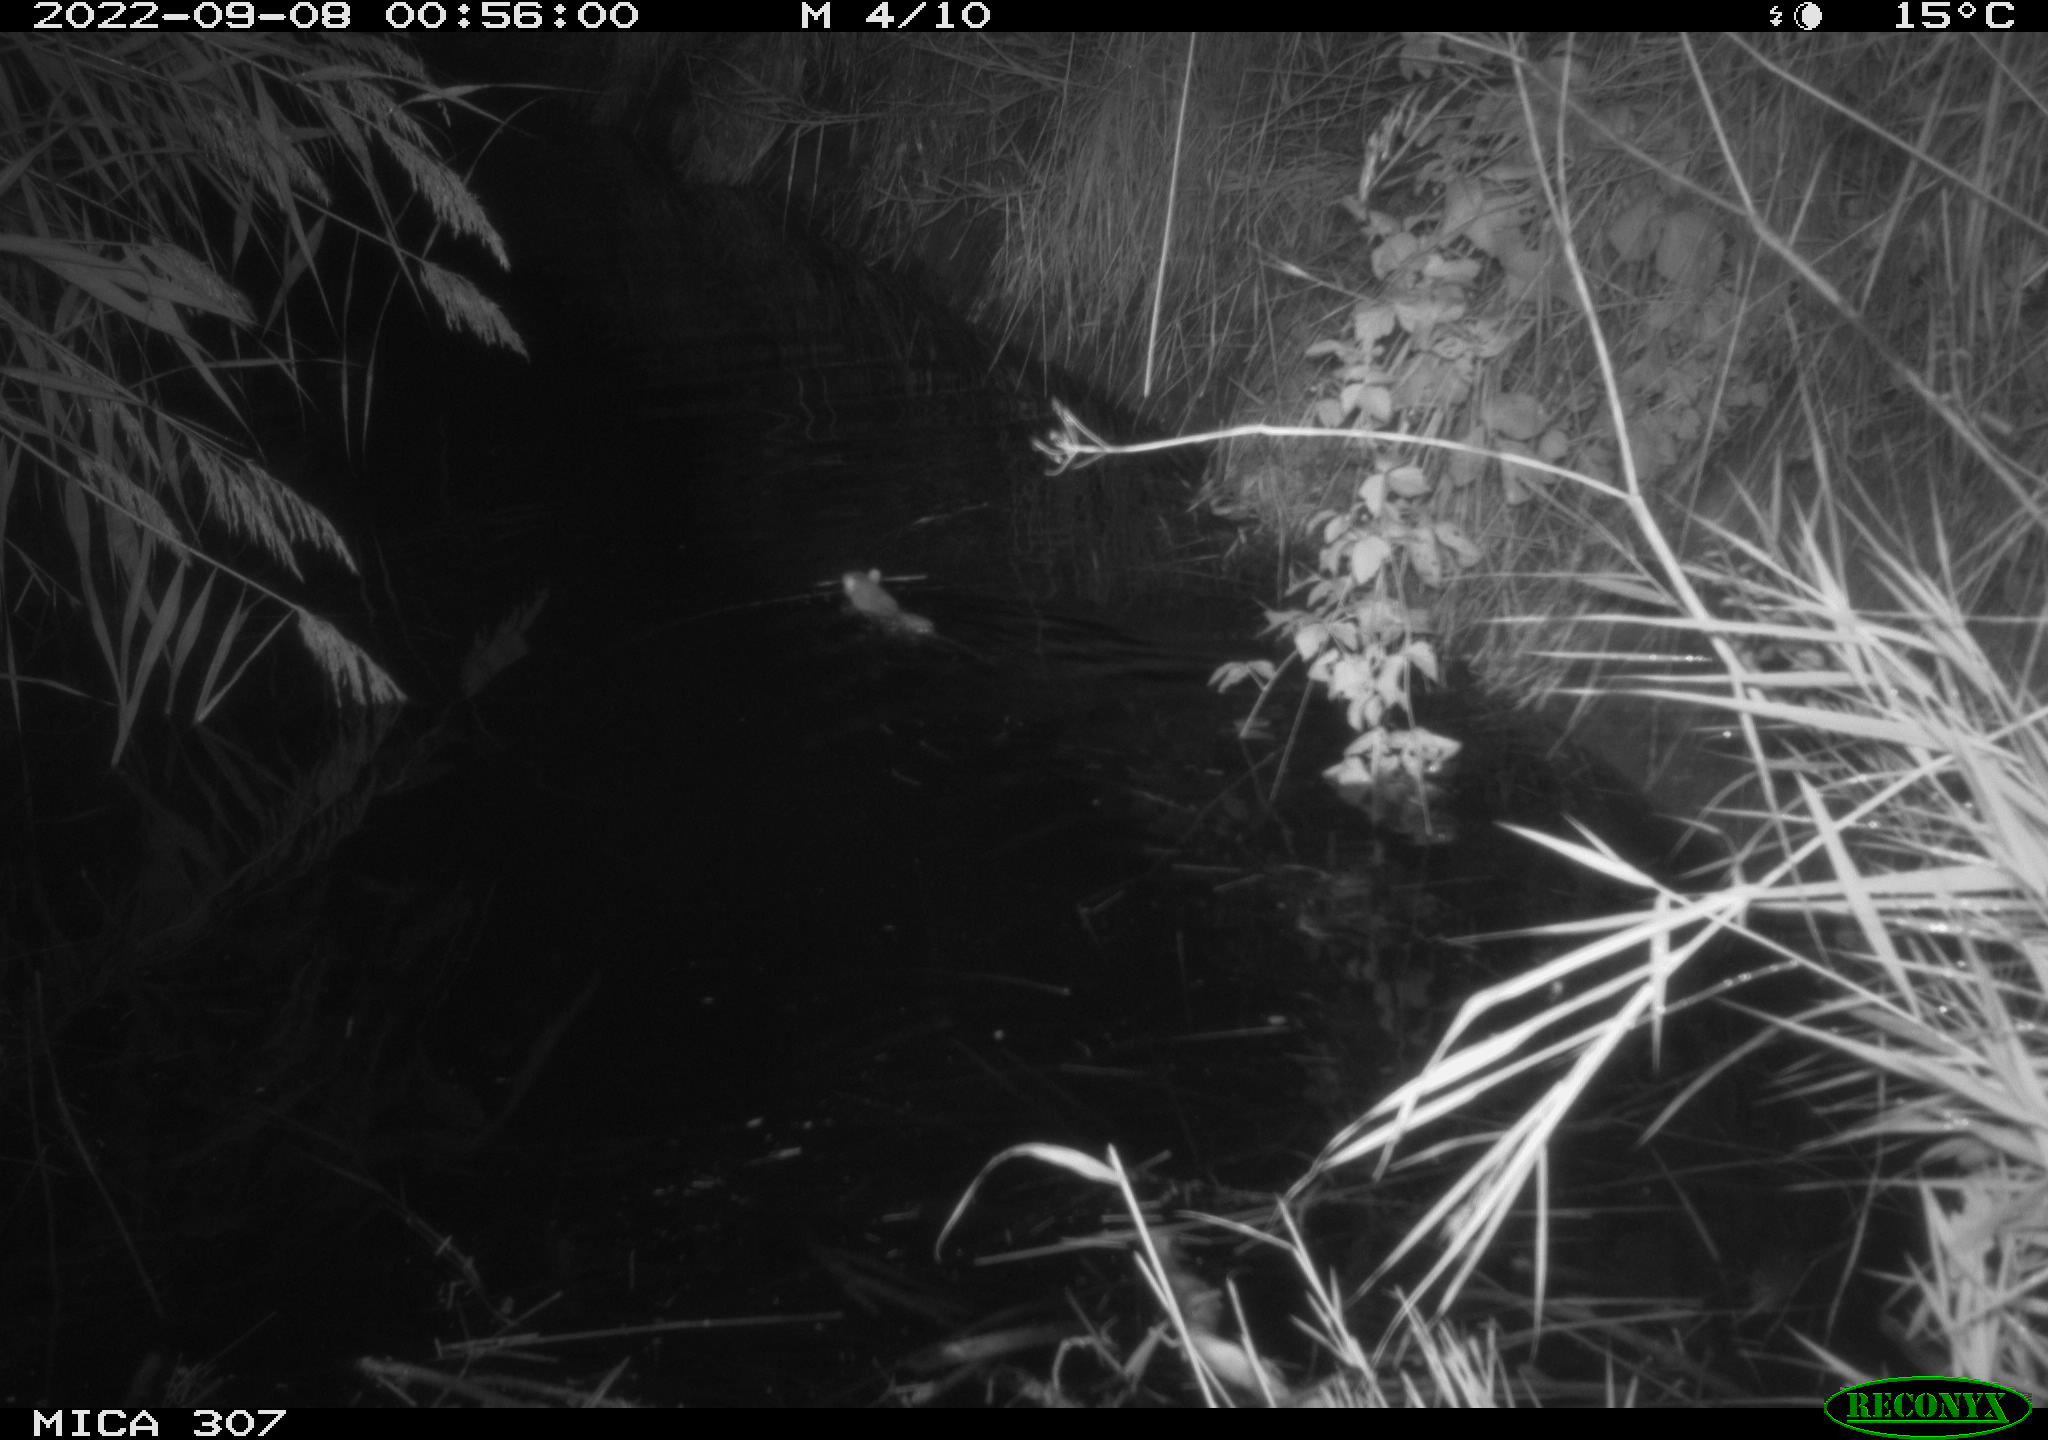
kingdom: Animalia
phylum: Chordata
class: Mammalia
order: Rodentia
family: Muridae
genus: Rattus
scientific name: Rattus norvegicus
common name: Brown rat
